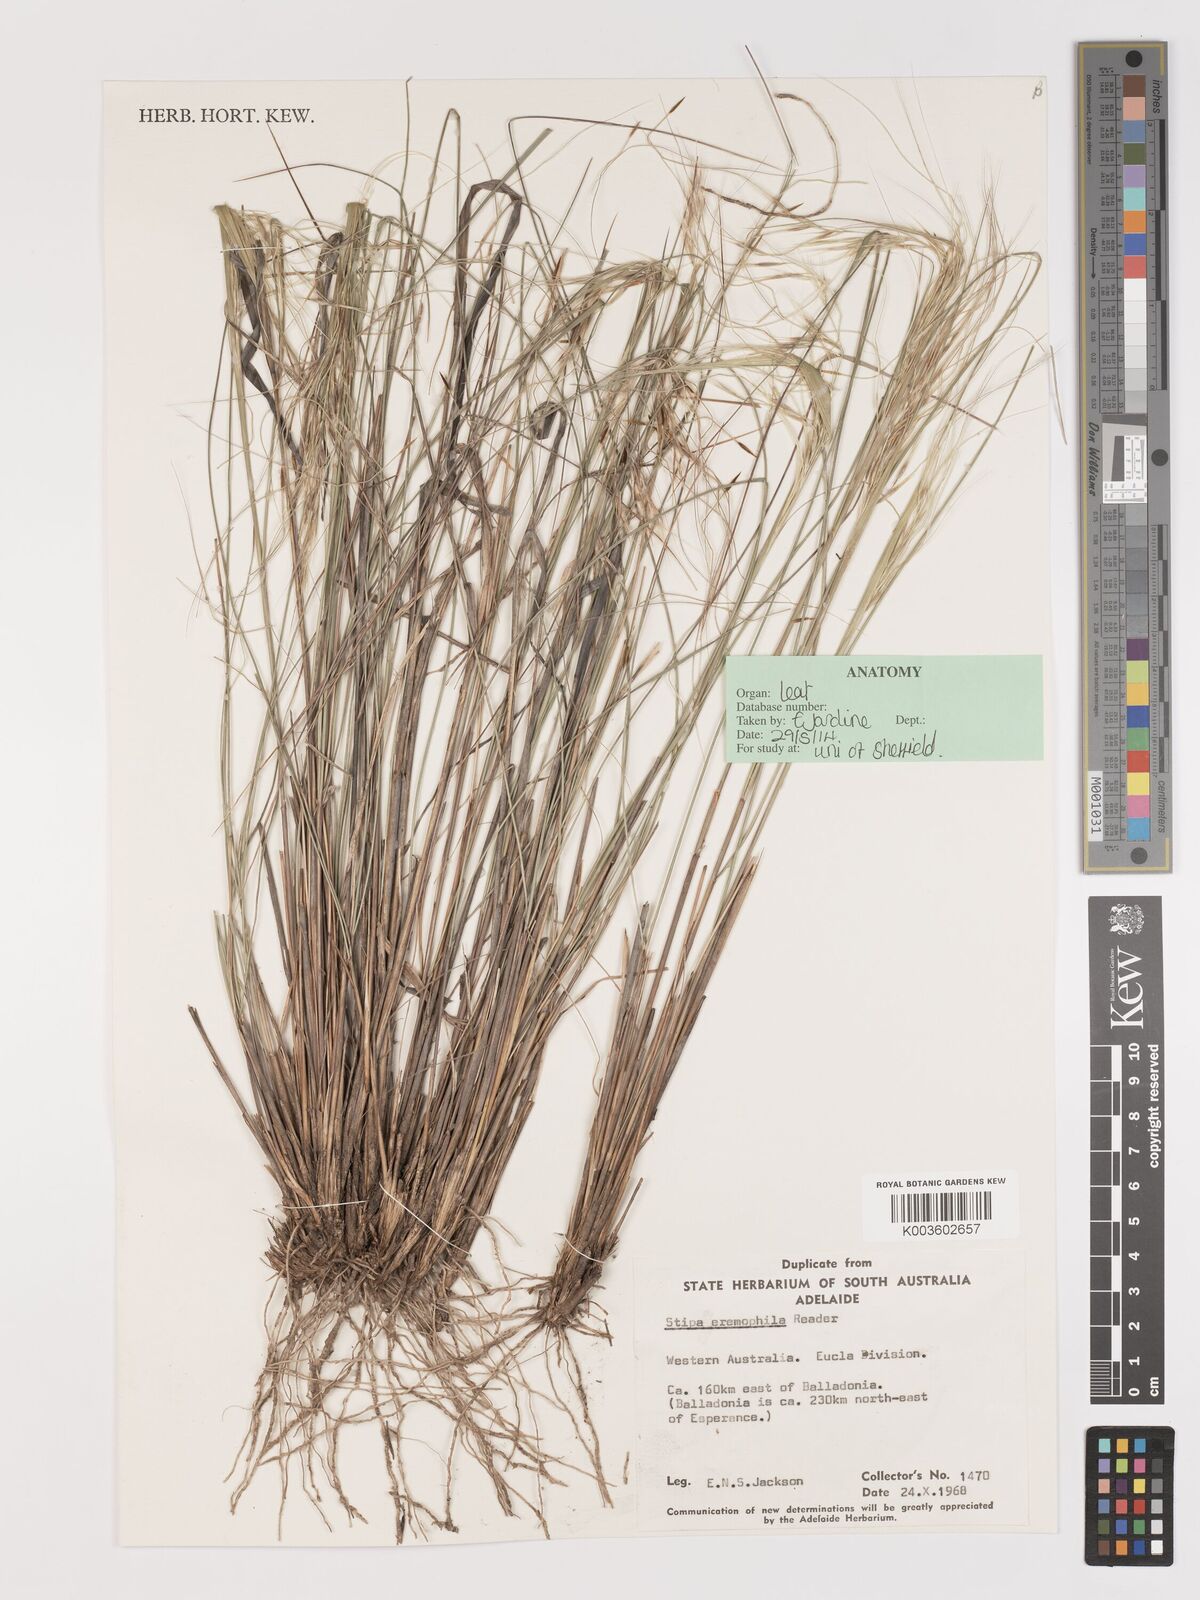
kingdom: Plantae
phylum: Tracheophyta
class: Liliopsida
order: Poales
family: Poaceae
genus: Austrostipa
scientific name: Austrostipa eremophila
